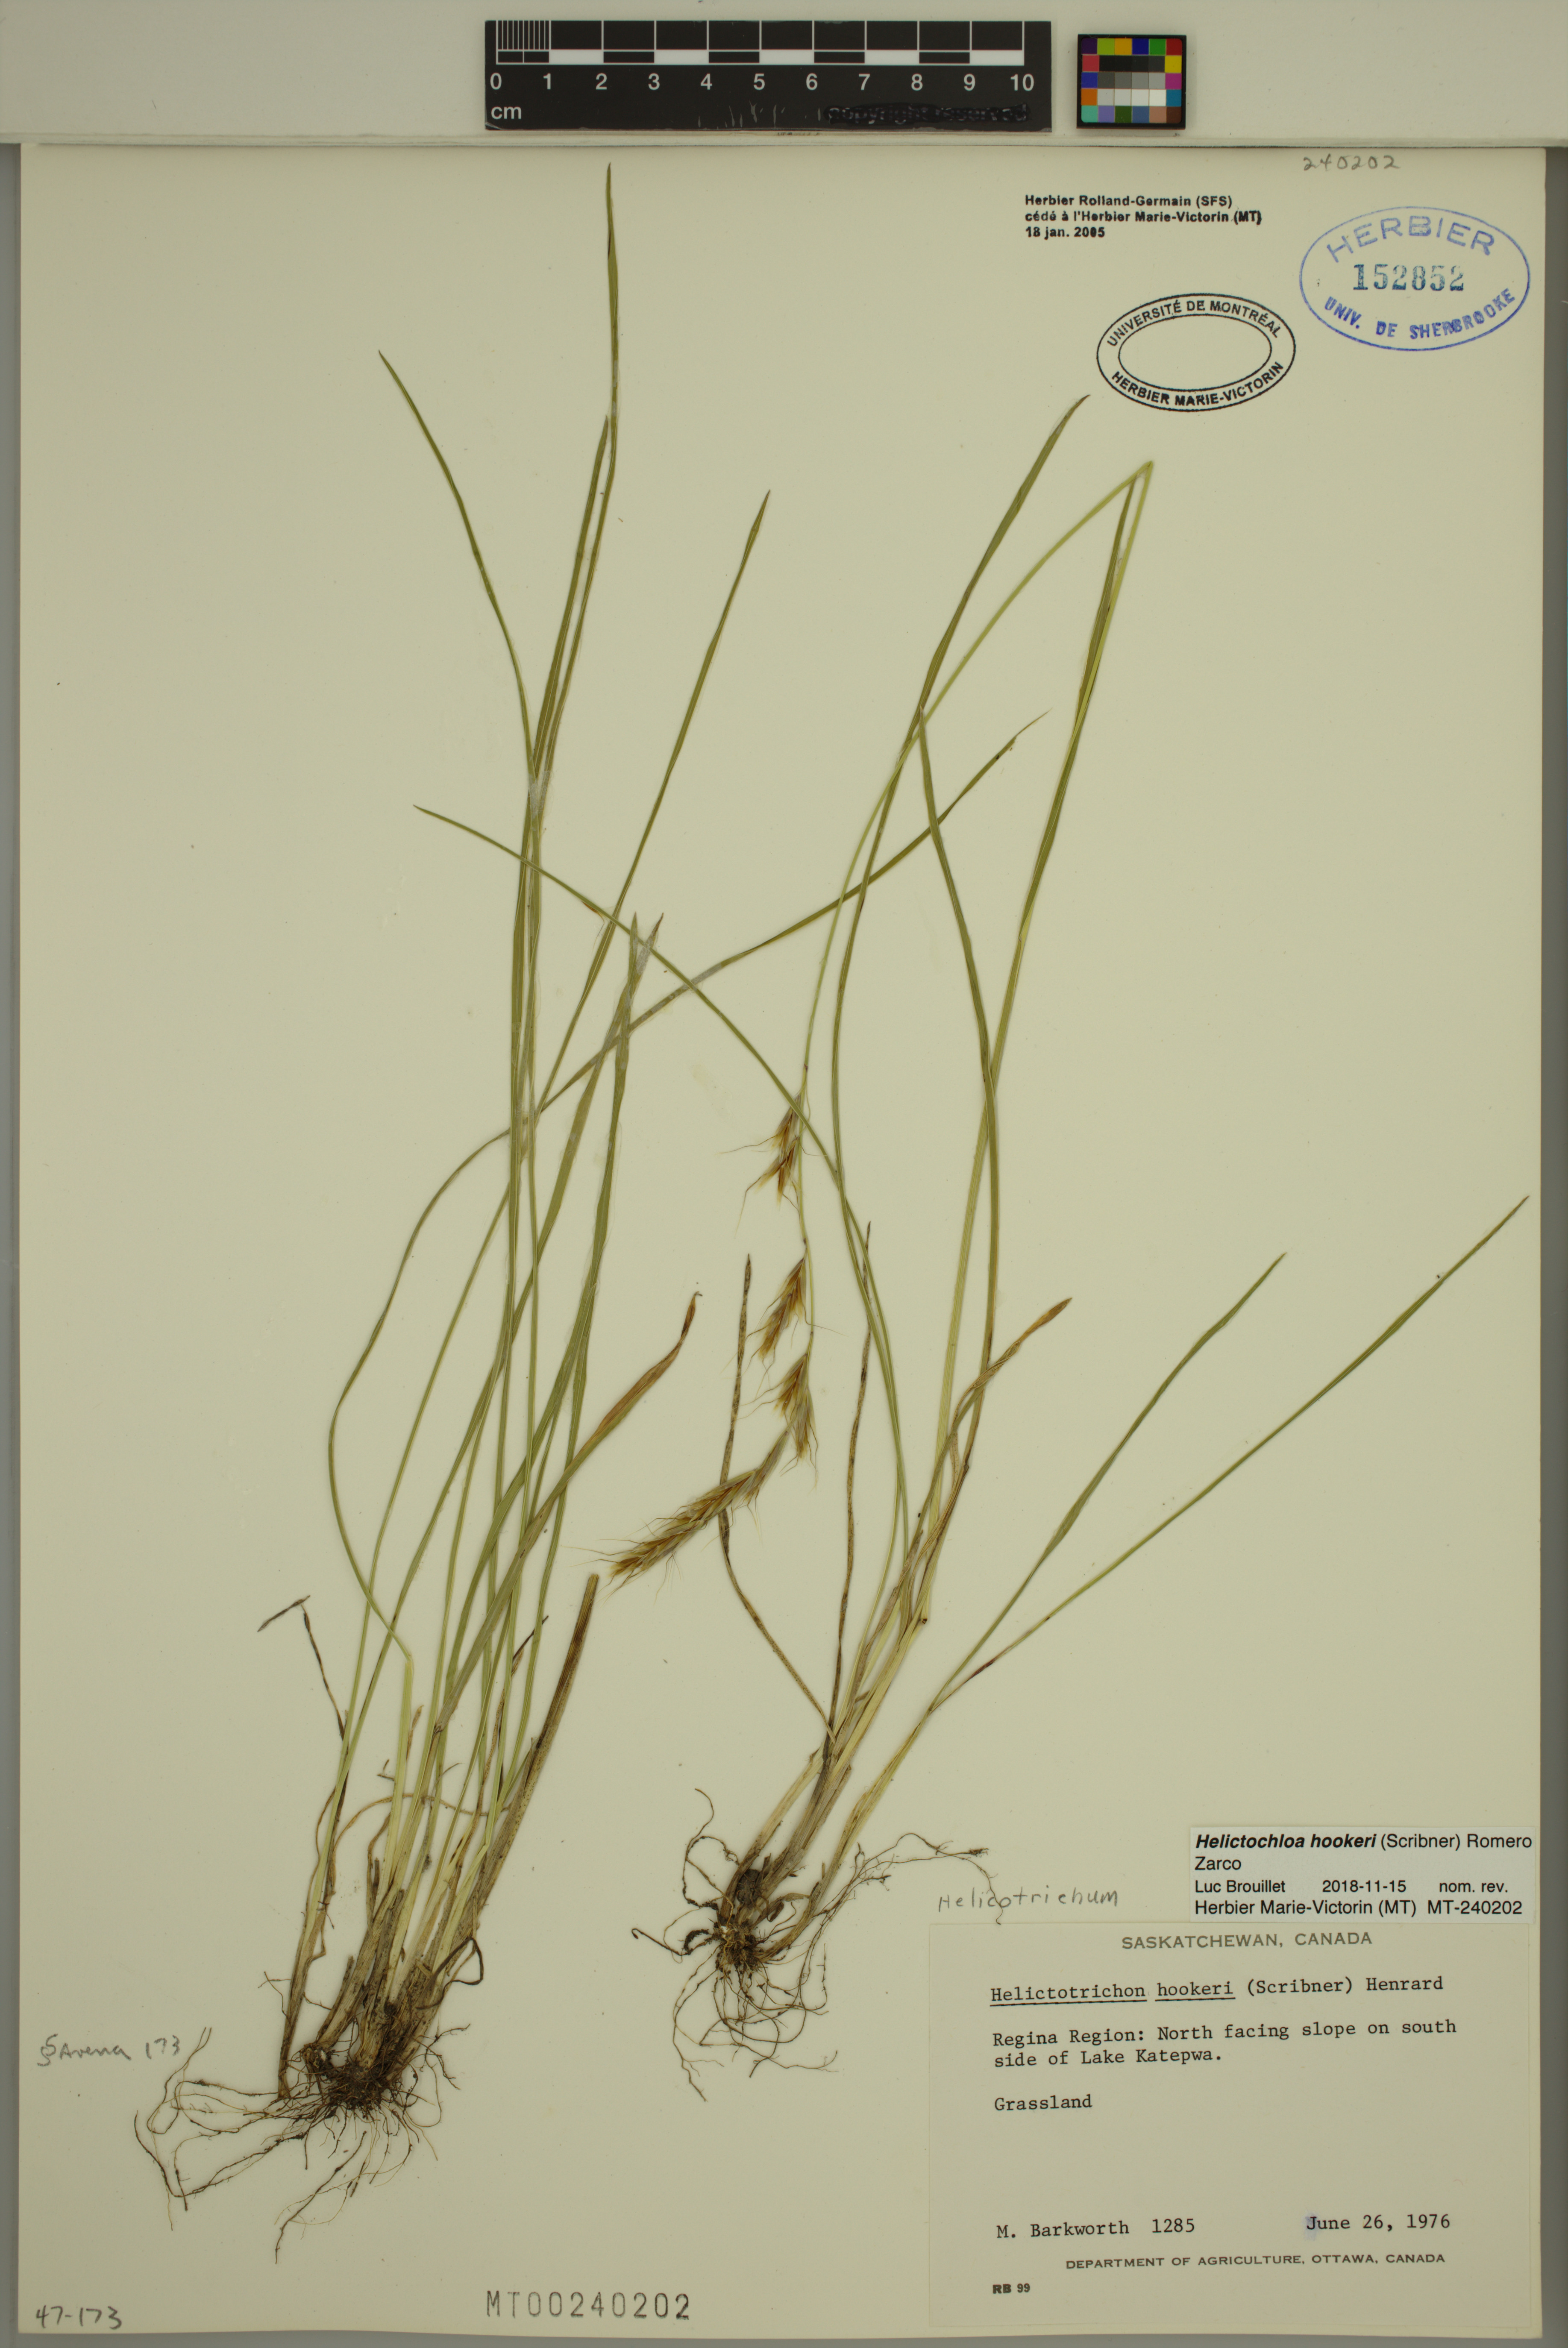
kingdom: Plantae
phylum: Tracheophyta
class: Liliopsida
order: Poales
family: Poaceae
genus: Helictochloa
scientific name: Helictochloa hookeri
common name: Hooker's alpine oatgrass
